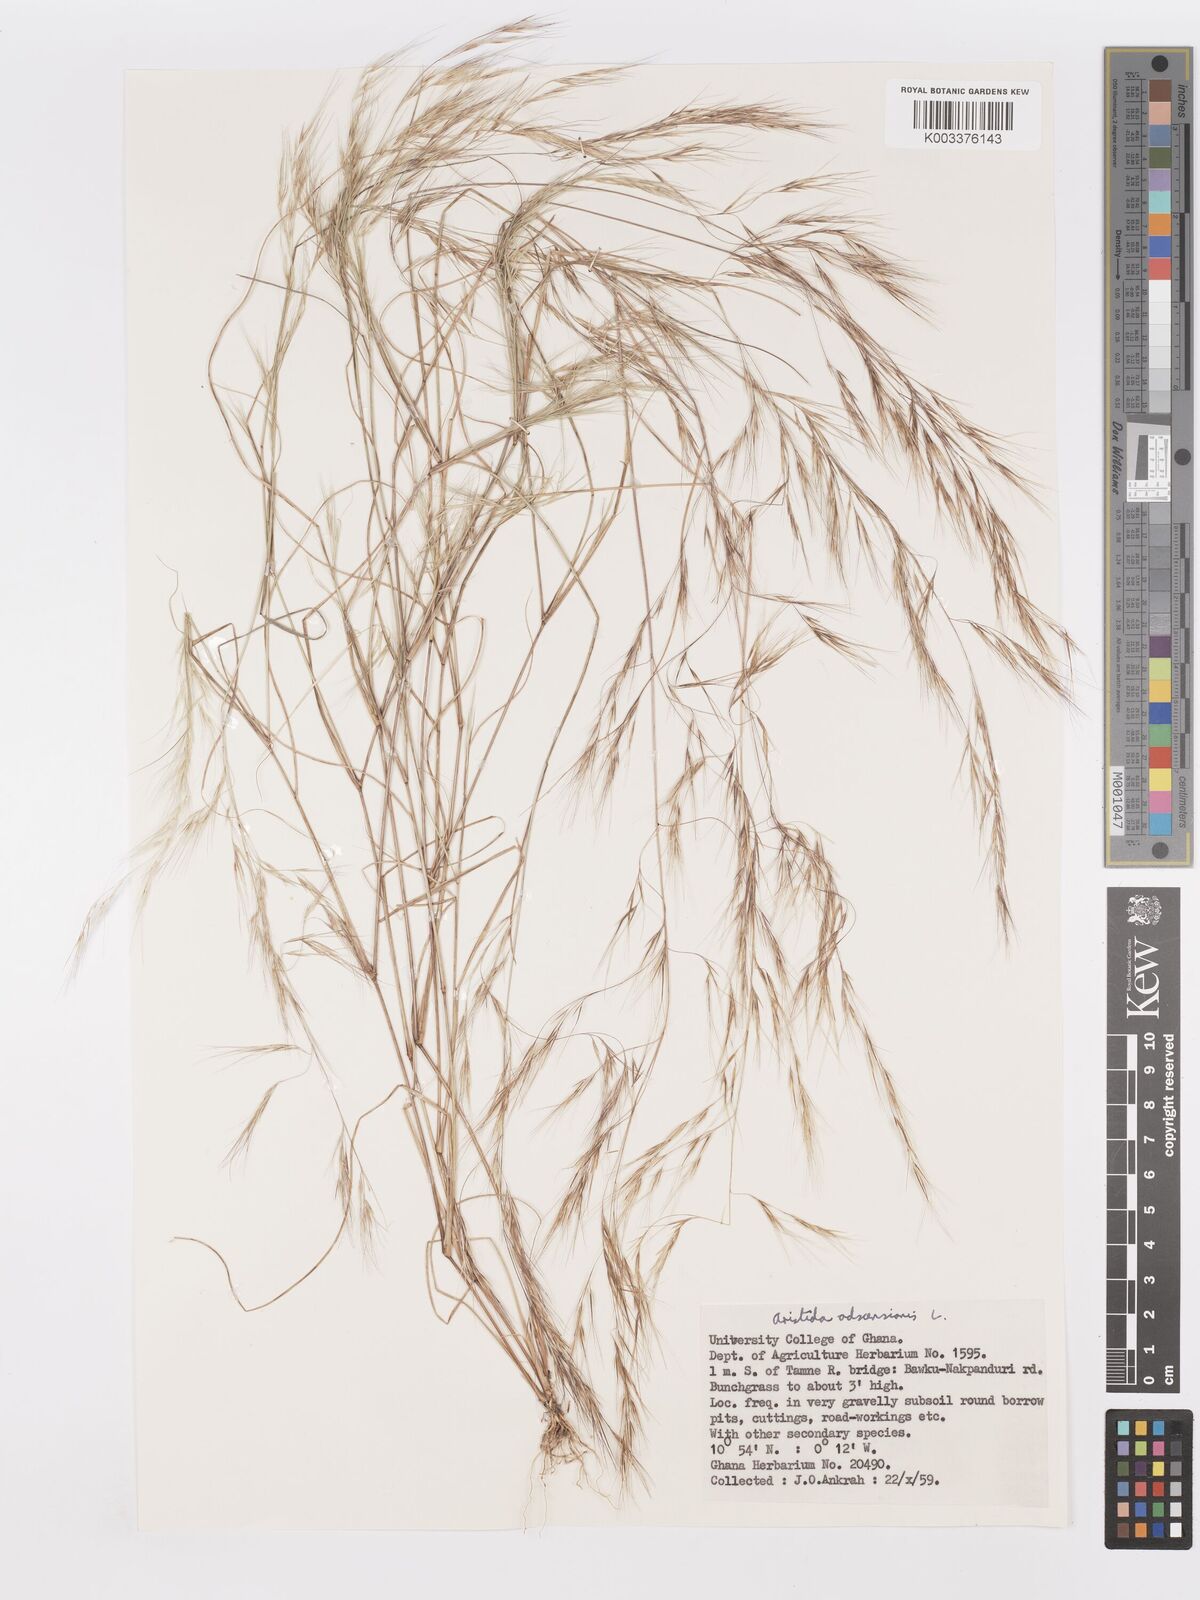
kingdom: Plantae
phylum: Tracheophyta
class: Liliopsida
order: Poales
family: Poaceae
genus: Aristida
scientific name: Aristida adscensionis
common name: Sixweeks threeawn
